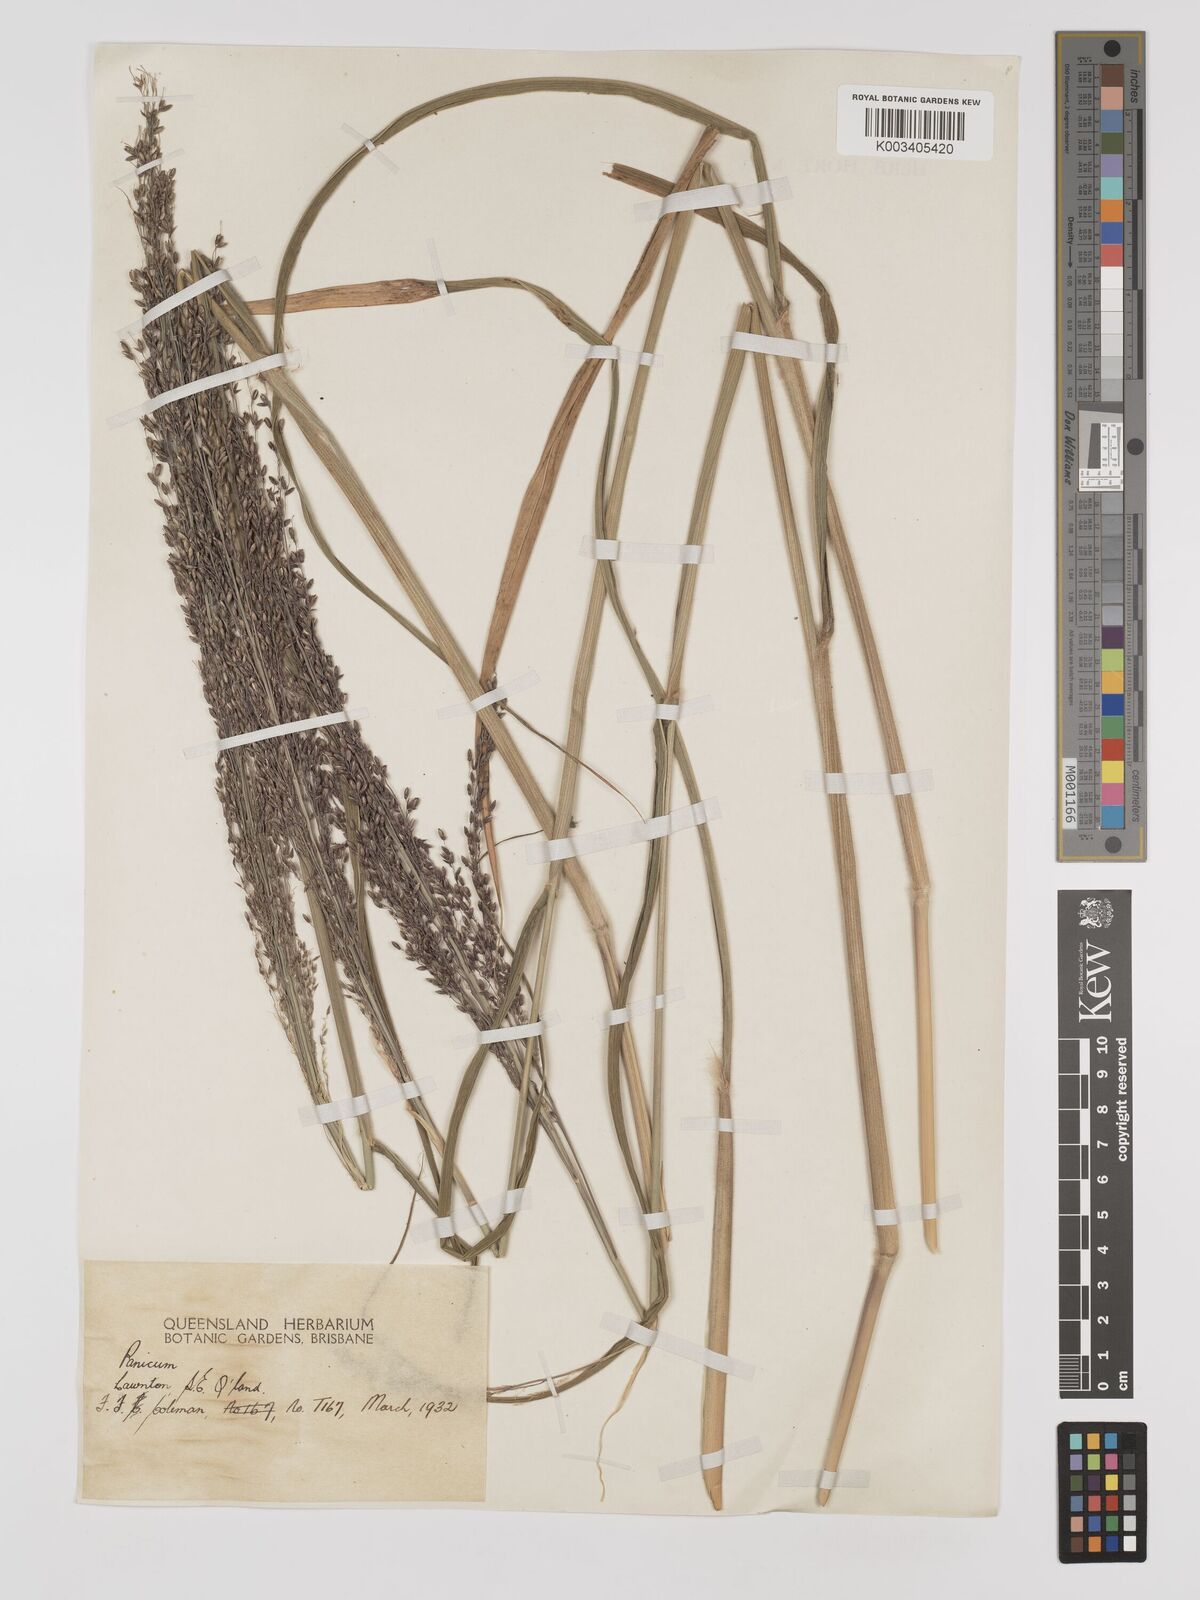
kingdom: Plantae
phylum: Tracheophyta
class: Liliopsida
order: Poales
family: Poaceae
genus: Megathyrsus
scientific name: Megathyrsus maximus
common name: Guineagrass
